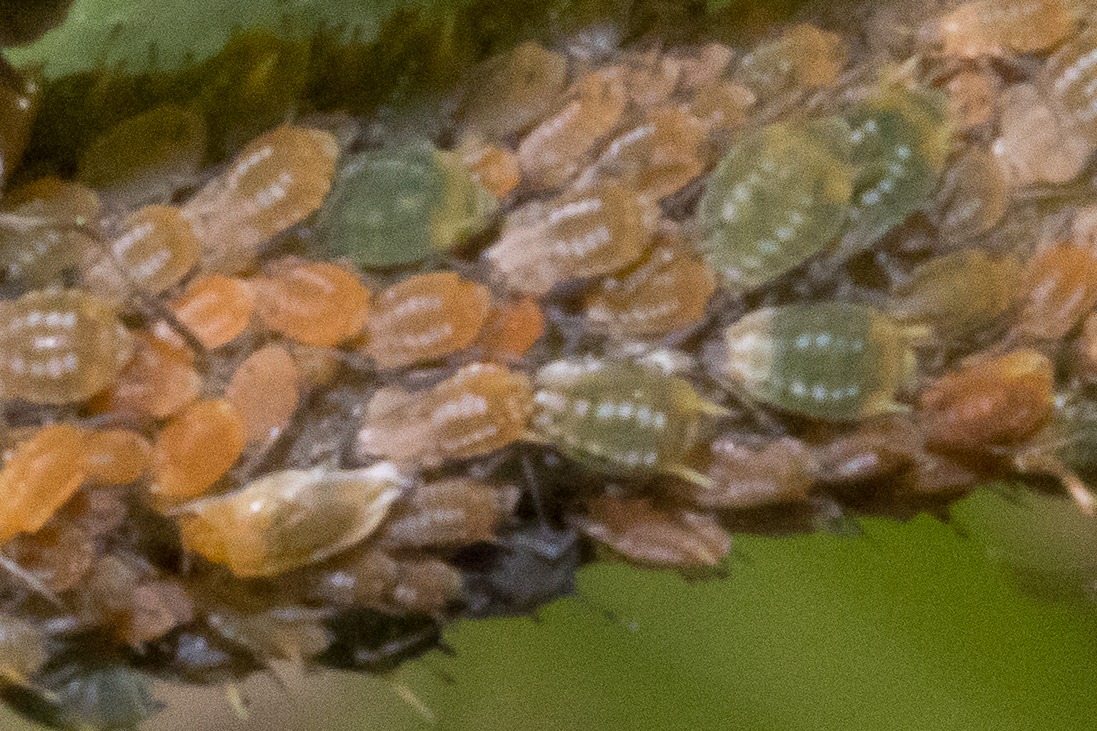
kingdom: Animalia
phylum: Arthropoda
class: Insecta
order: Hemiptera
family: Aphididae
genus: Aphis
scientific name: Aphis farinosa
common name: Pileskudbladlus
